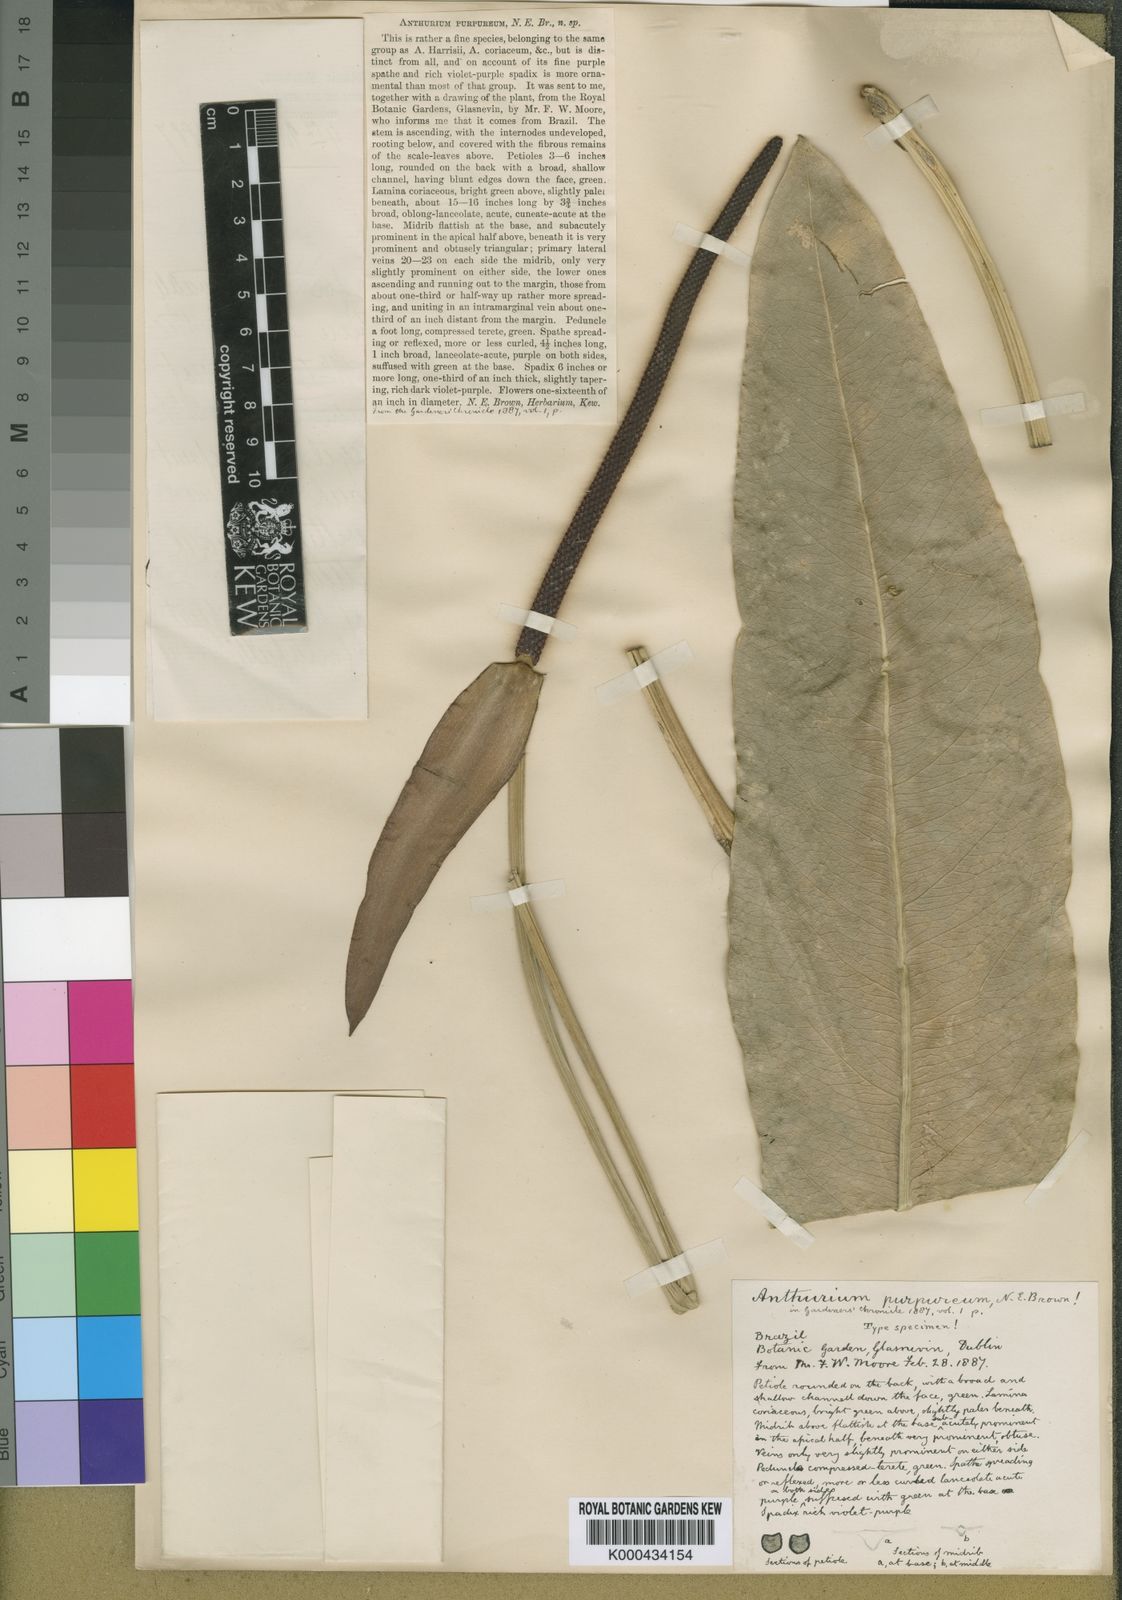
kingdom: Plantae
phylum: Tracheophyta
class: Liliopsida
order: Alismatales
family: Araceae
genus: Anthurium
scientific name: Anthurium purpureum
